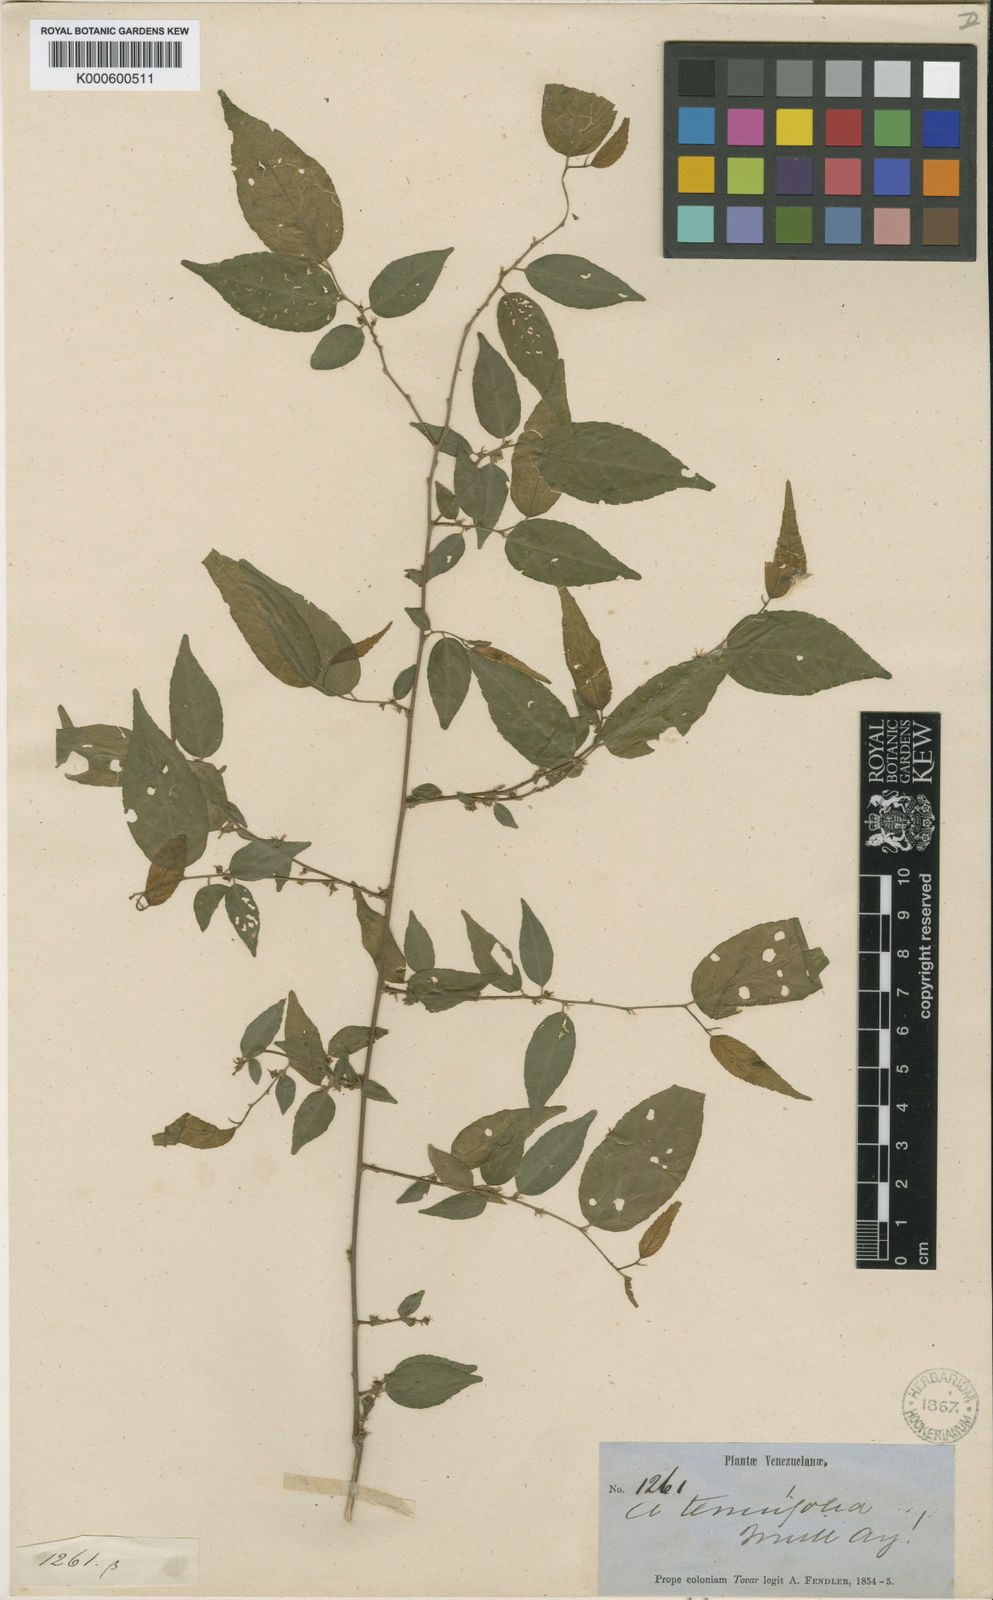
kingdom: Plantae
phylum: Tracheophyta
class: Magnoliopsida
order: Malpighiales
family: Euphorbiaceae
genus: Acalypha
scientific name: Acalypha
